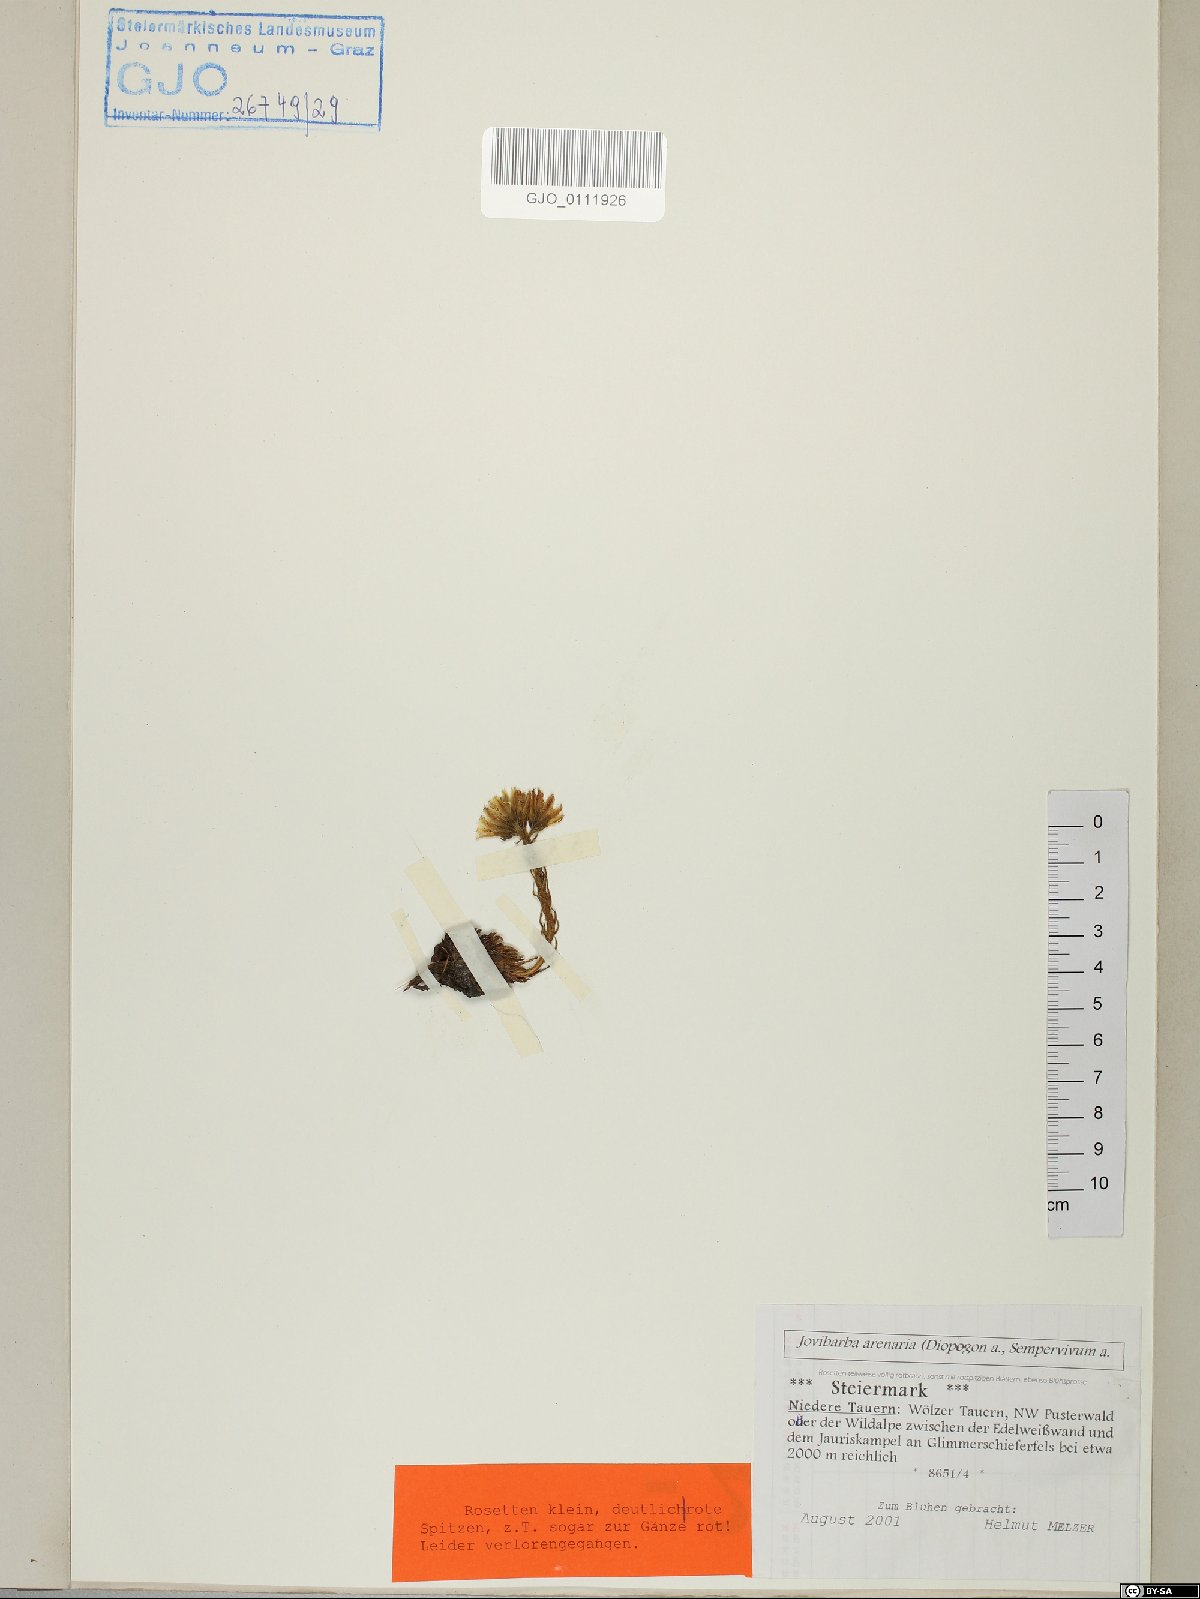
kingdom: Plantae
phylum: Tracheophyta
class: Magnoliopsida
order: Saxifragales
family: Crassulaceae
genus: Sempervivum
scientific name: Sempervivum globiferum
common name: Rolling hen-and-chicks
